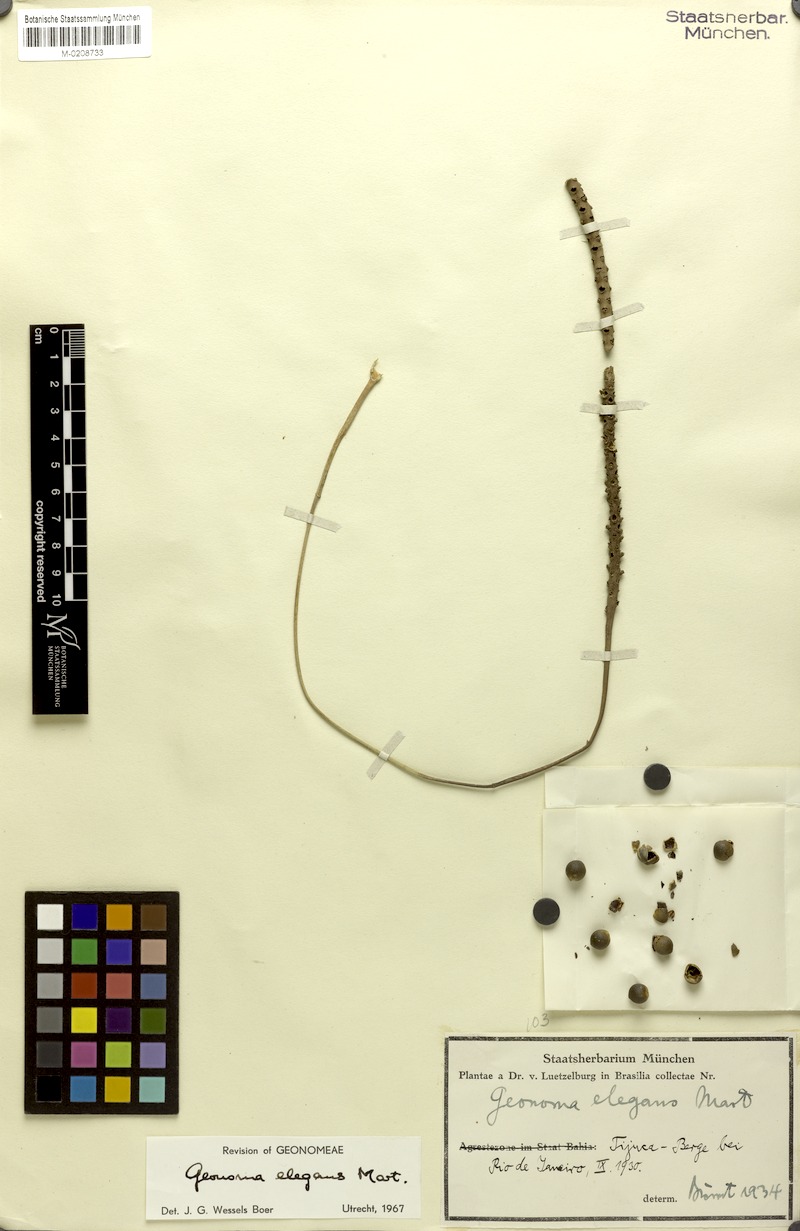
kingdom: Plantae
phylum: Tracheophyta
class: Liliopsida
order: Arecales
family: Arecaceae
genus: Geonoma
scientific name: Geonoma elegans
